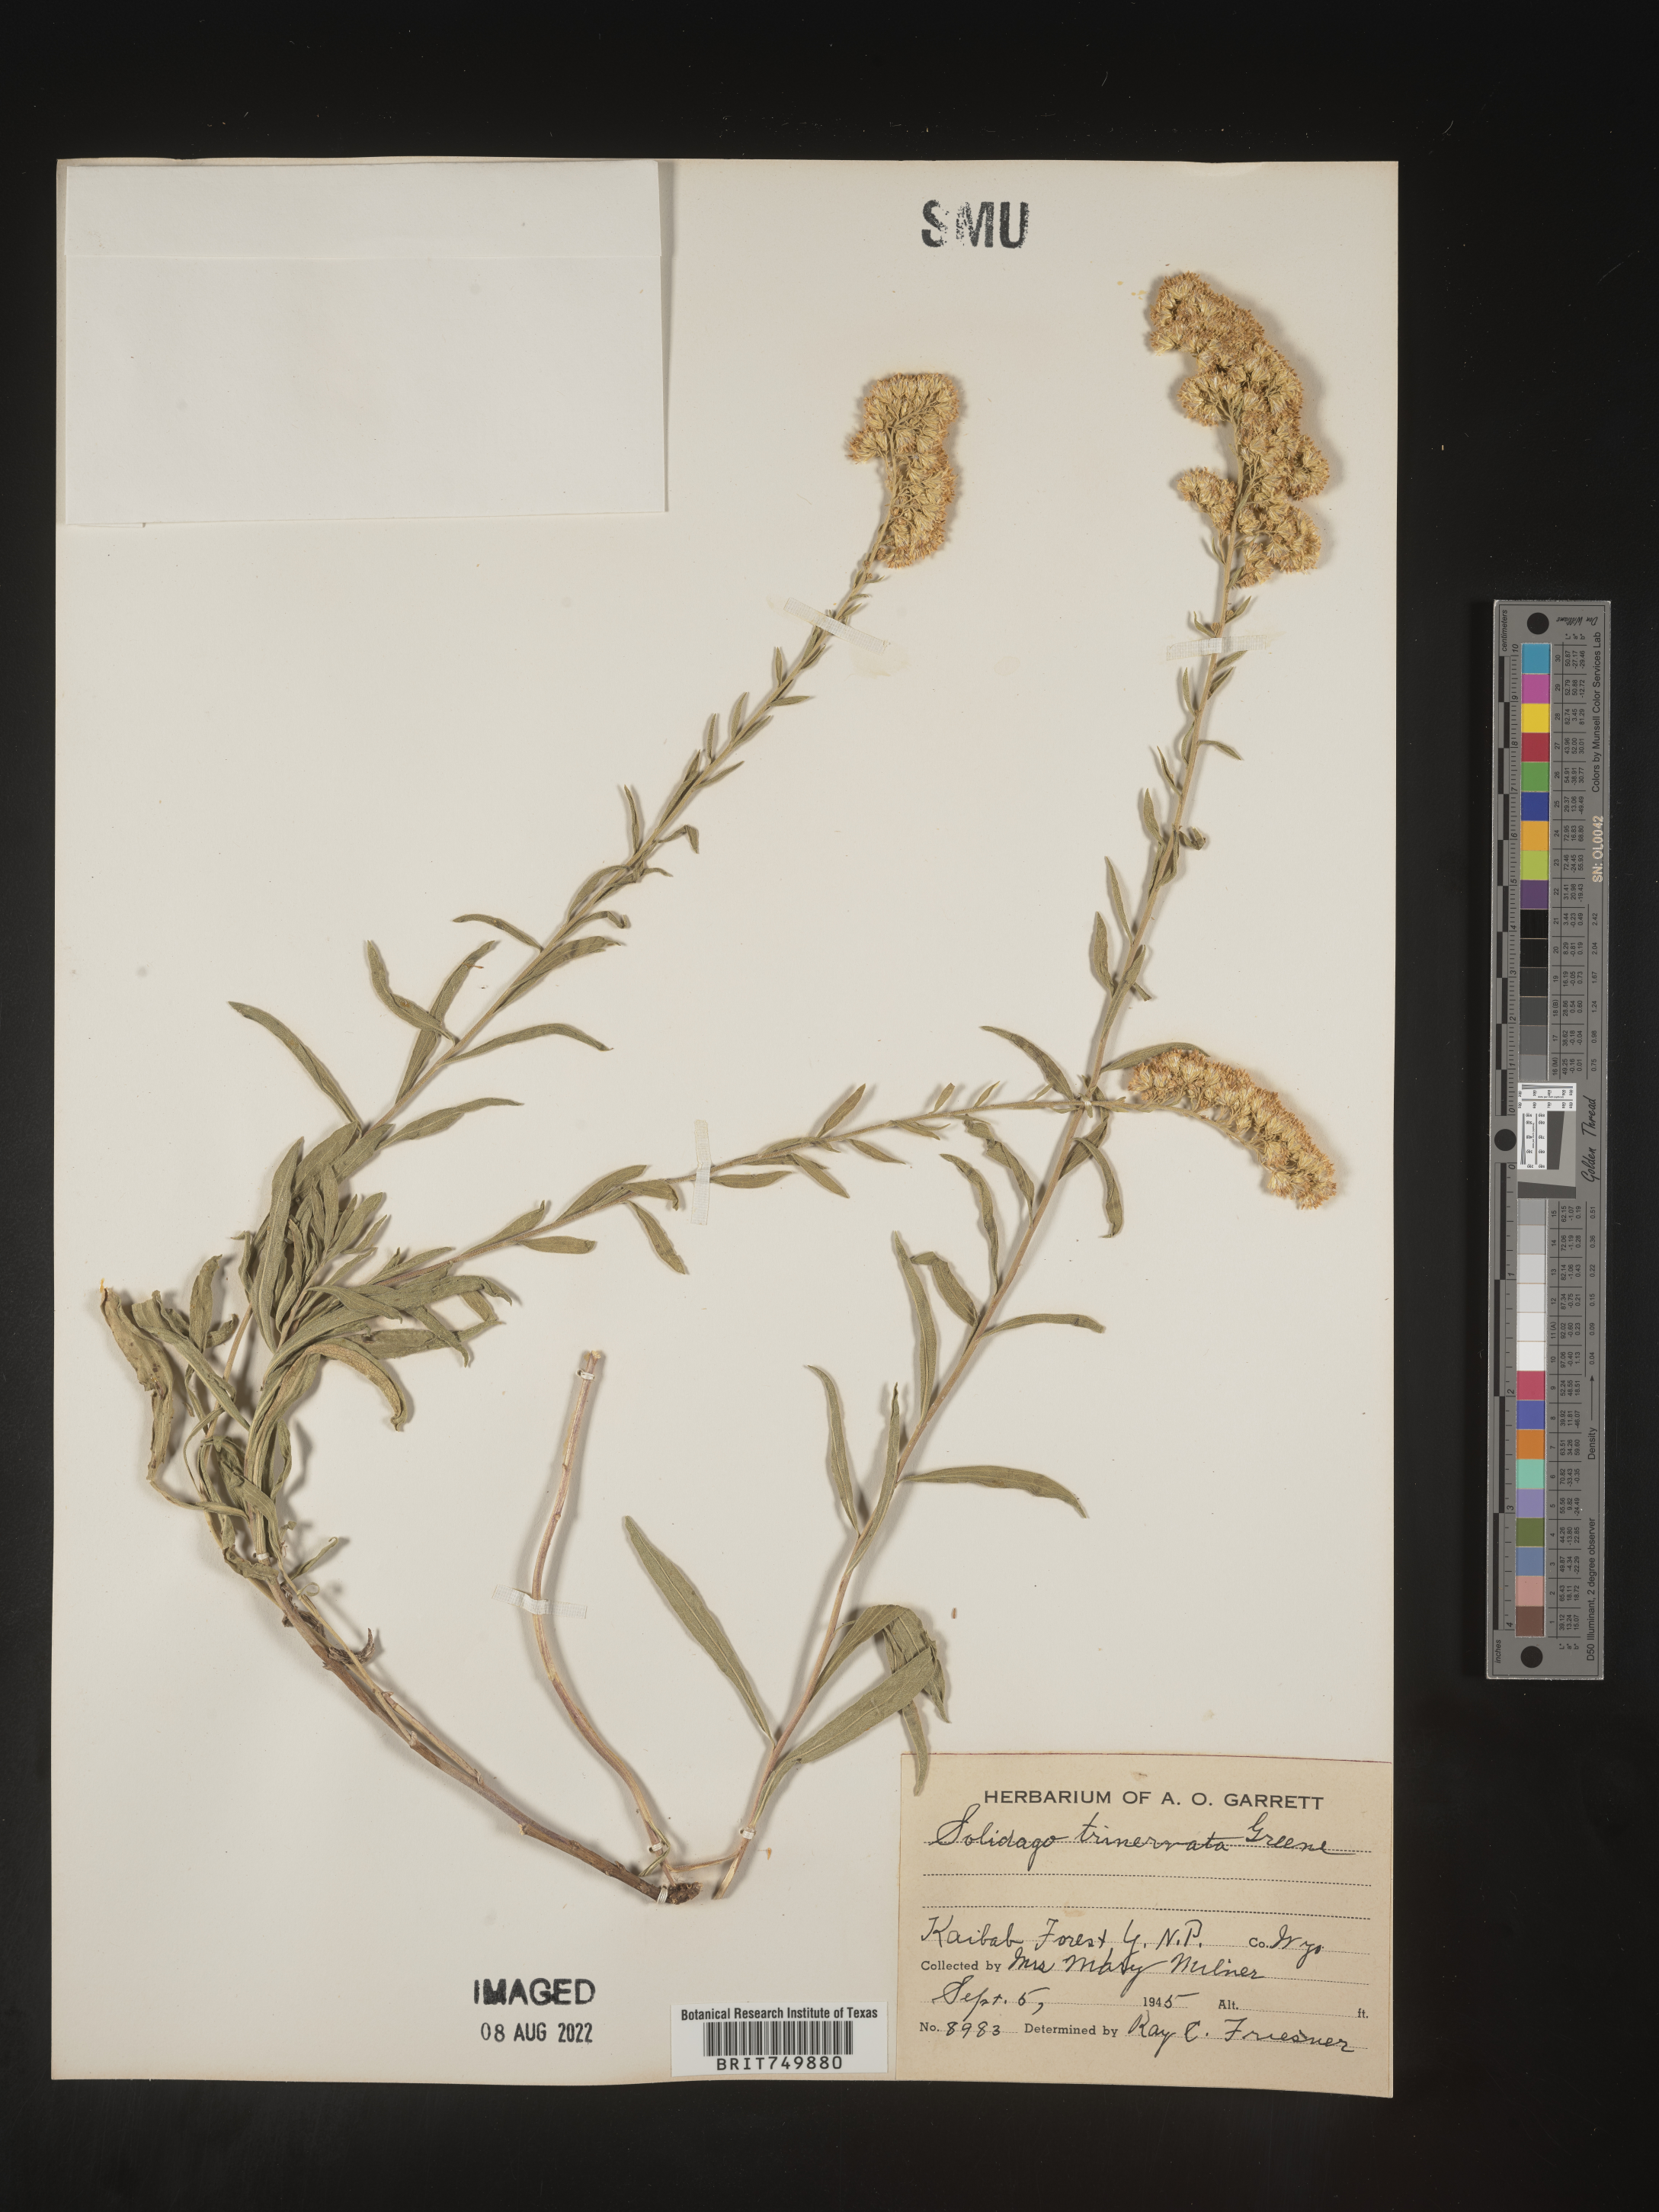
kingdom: Plantae
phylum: Tracheophyta
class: Magnoliopsida
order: Asterales
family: Asteraceae
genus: Solidago
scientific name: Solidago garrettii
